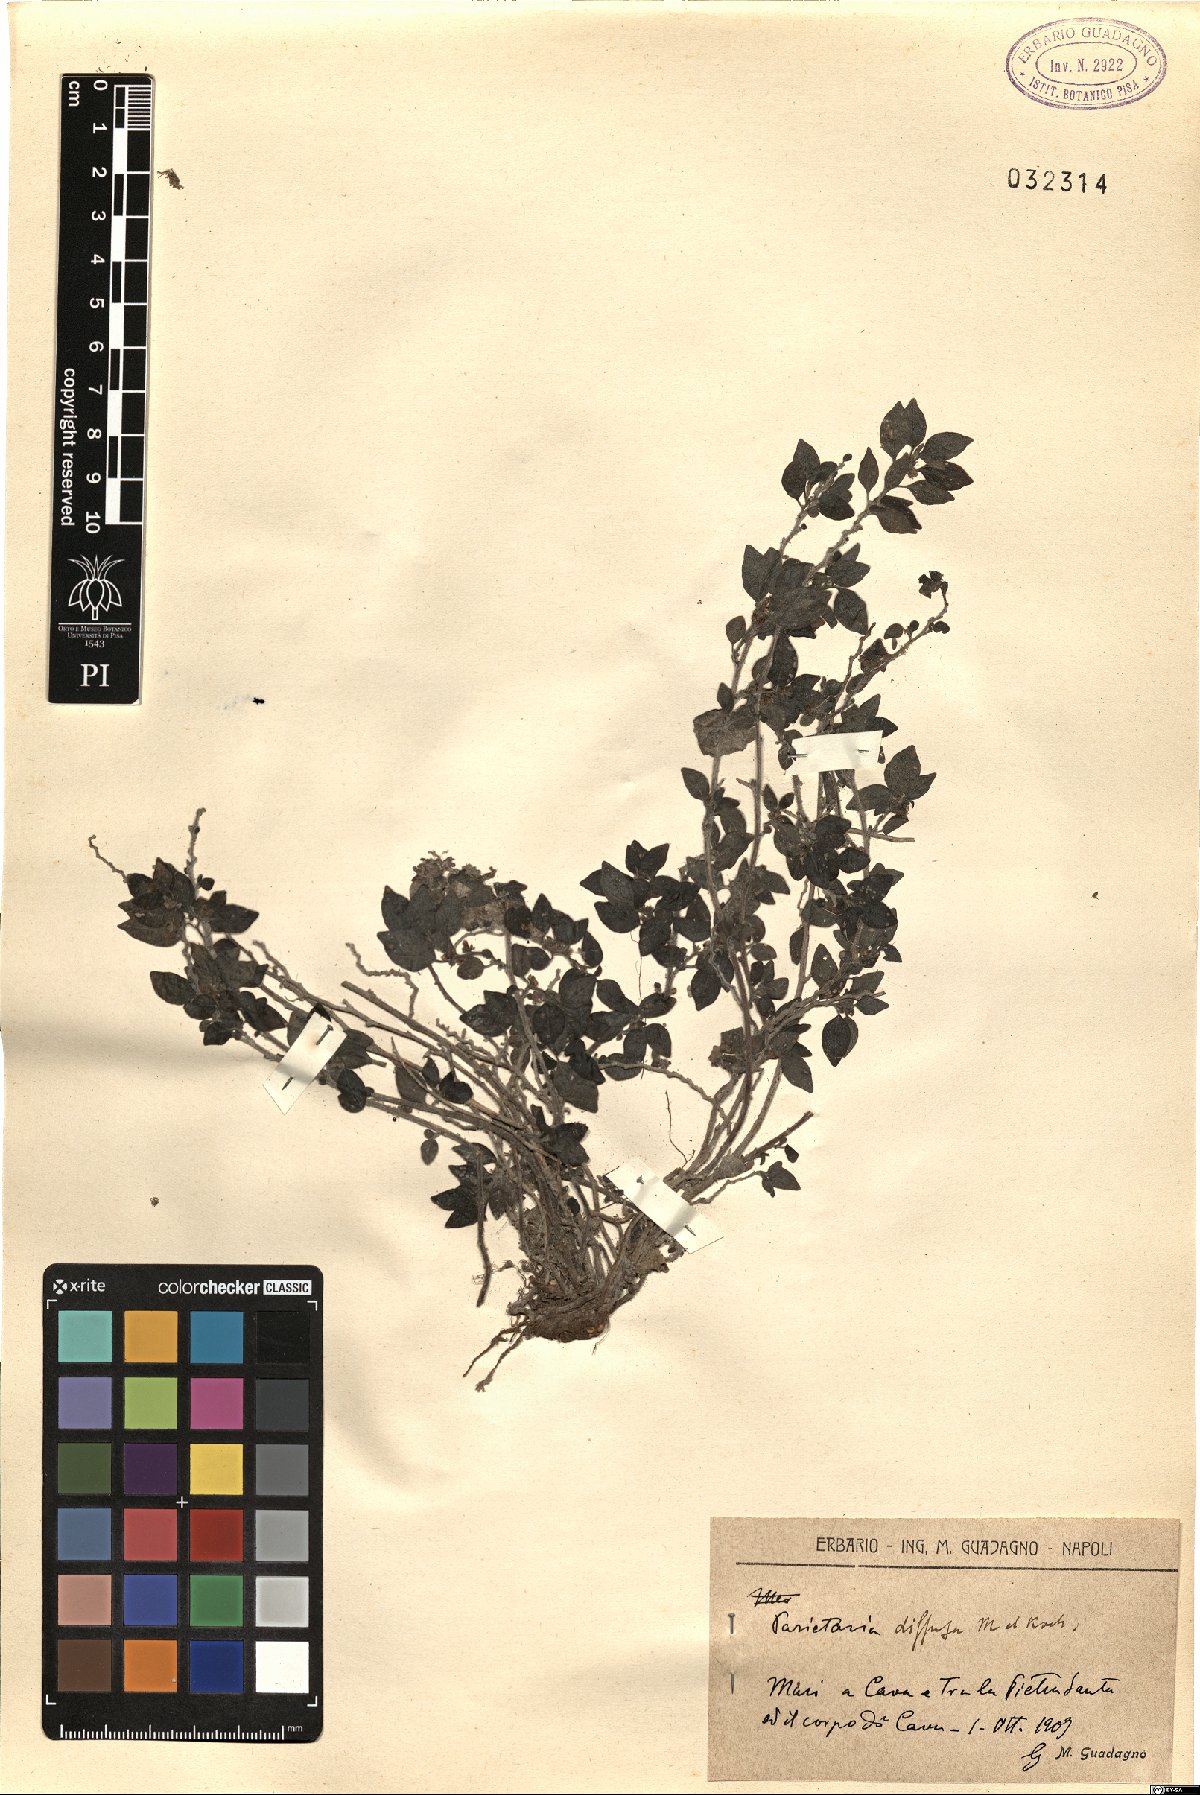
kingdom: Plantae
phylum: Tracheophyta
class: Magnoliopsida
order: Rosales
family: Urticaceae
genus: Parietaria
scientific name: Parietaria judaica
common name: Pellitory-of-the-wall
